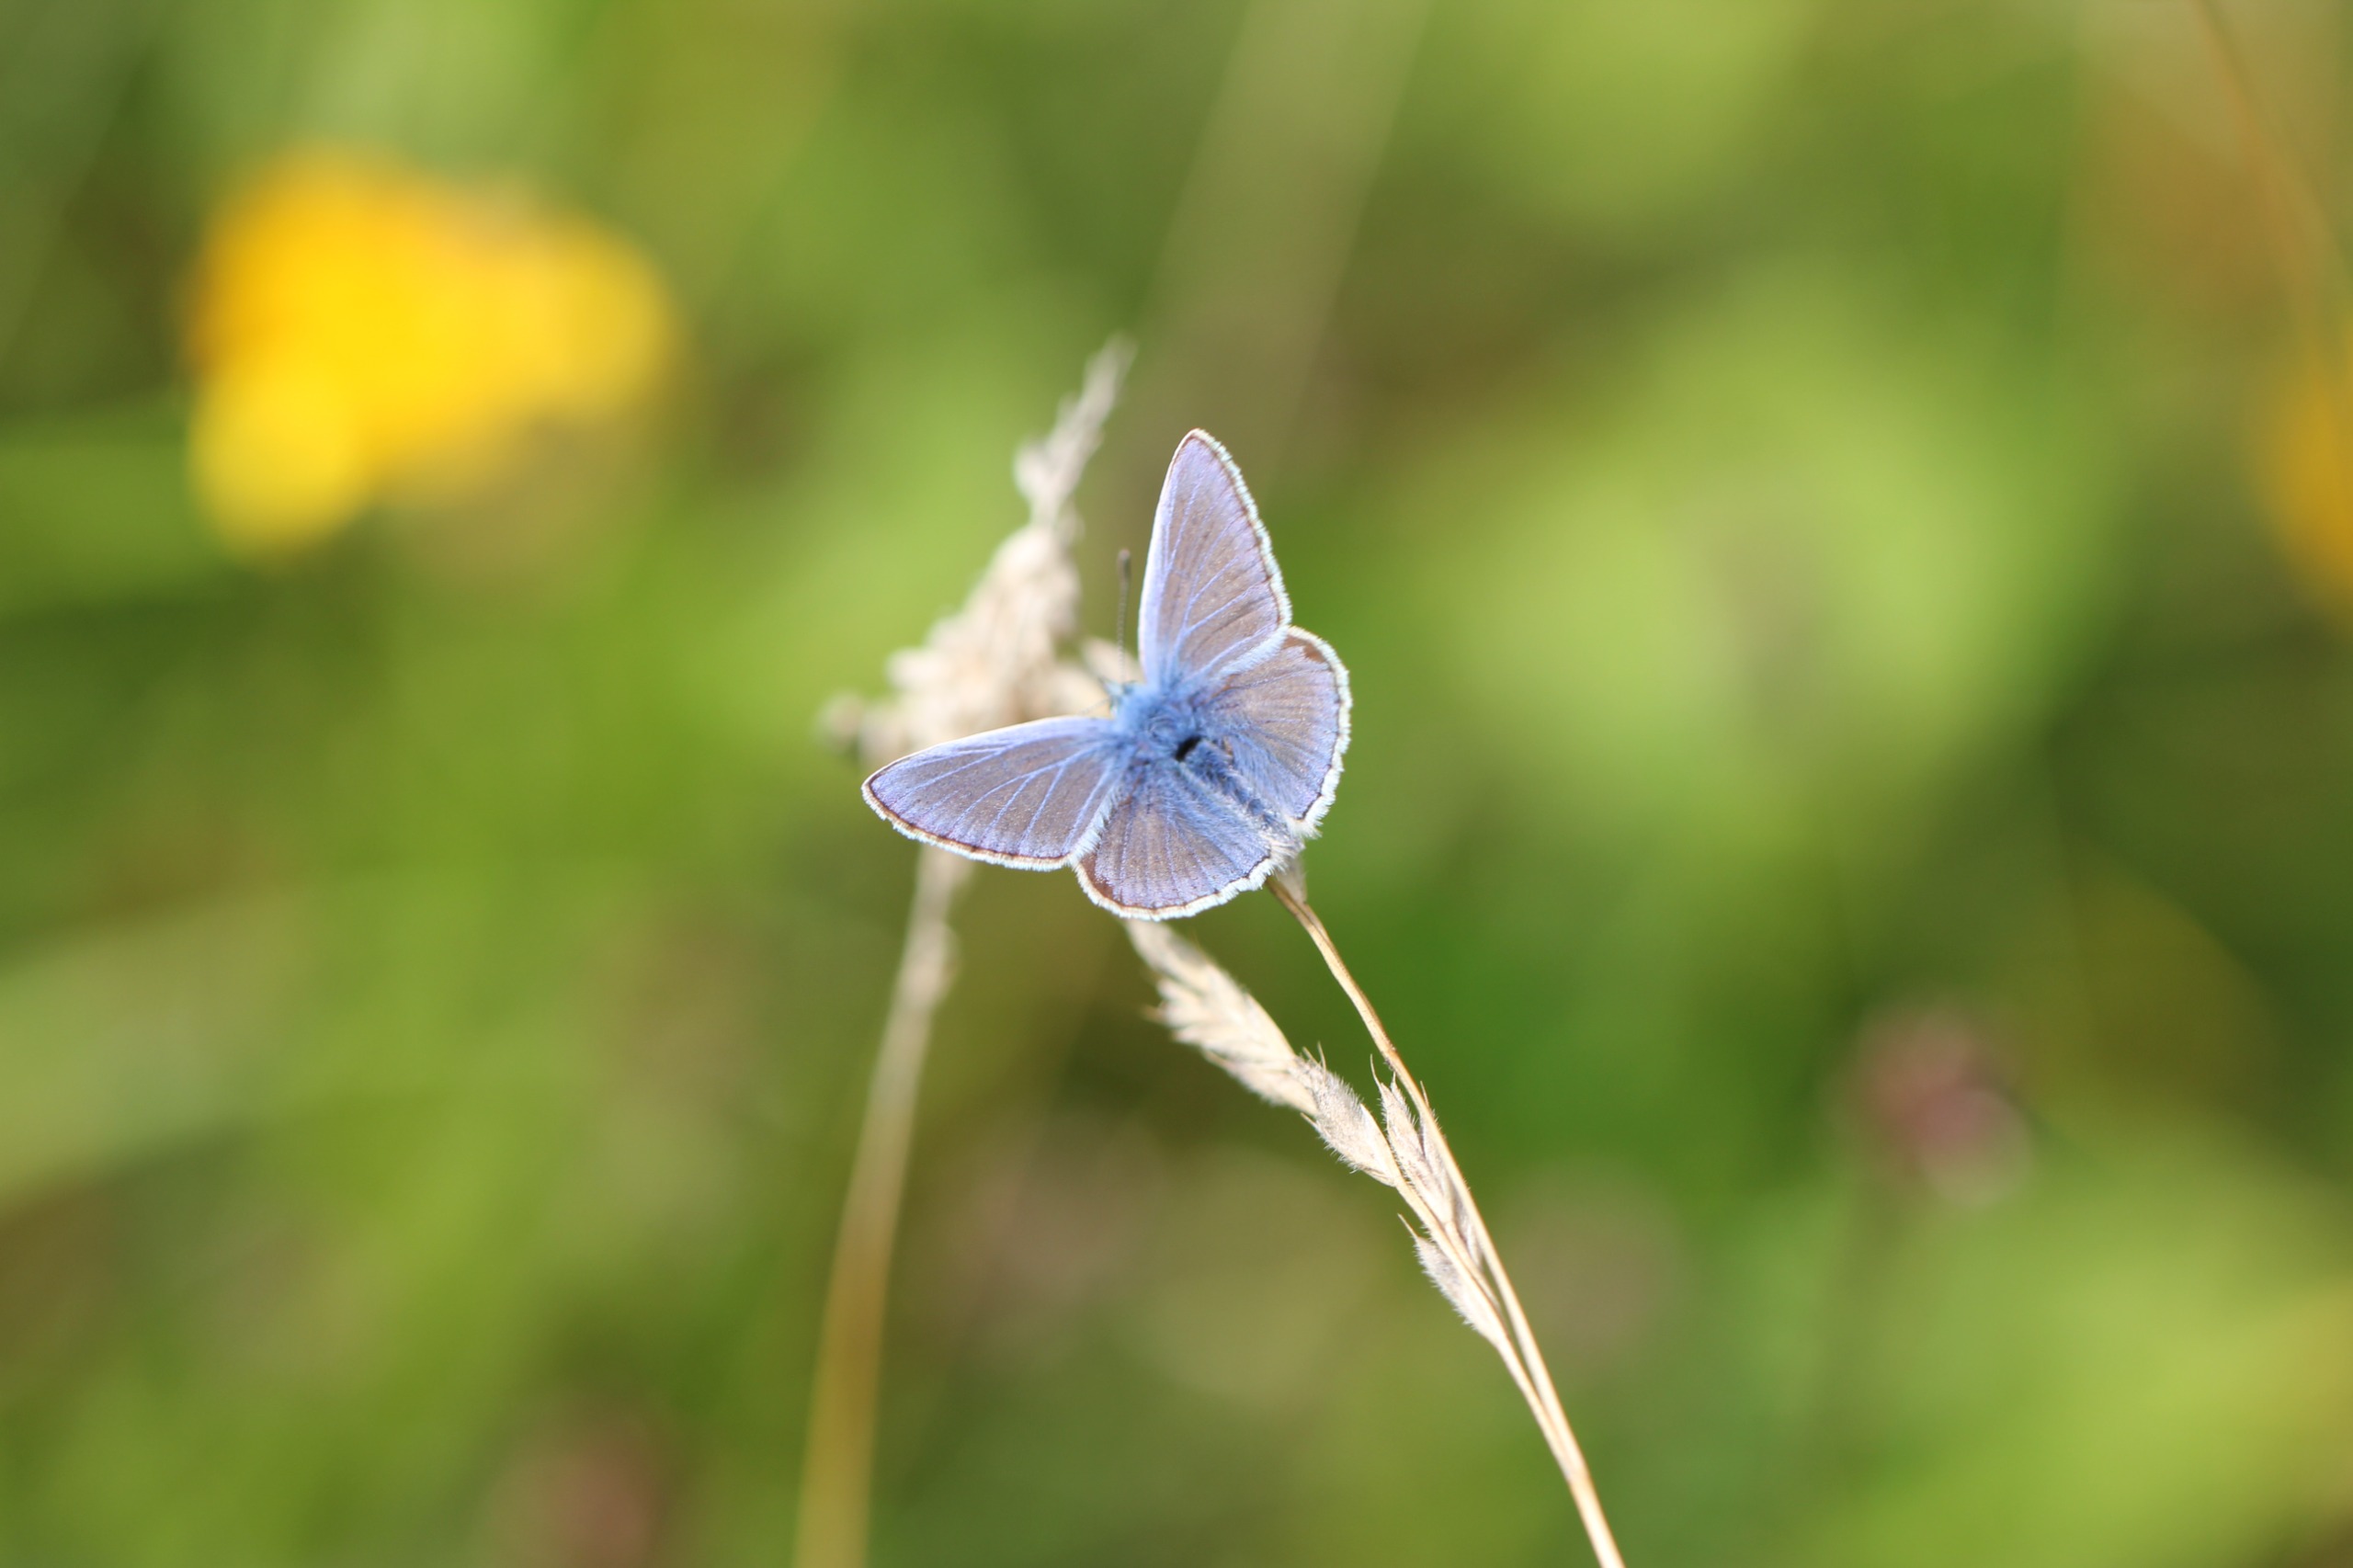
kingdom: Animalia
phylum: Arthropoda
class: Insecta
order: Lepidoptera
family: Lycaenidae
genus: Polyommatus
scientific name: Polyommatus icarus
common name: Almindelig blåfugl
